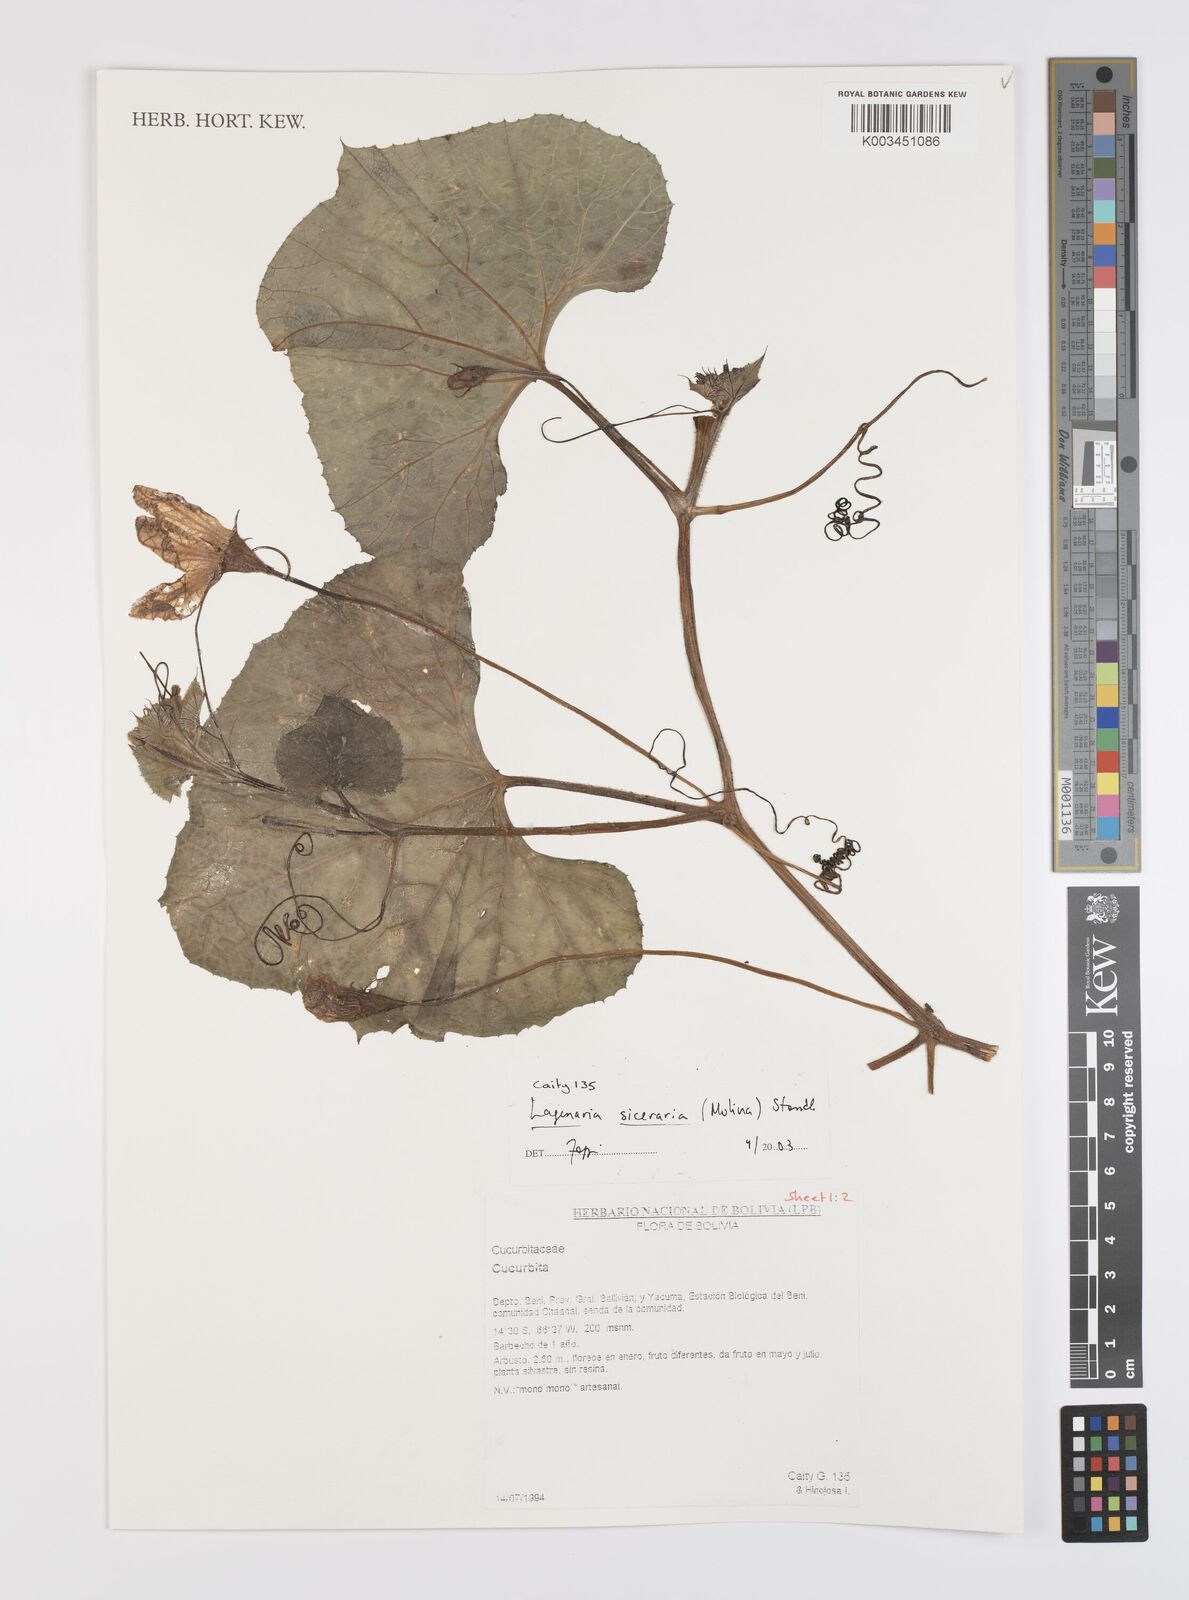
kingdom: Plantae
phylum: Tracheophyta
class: Magnoliopsida
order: Cucurbitales
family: Cucurbitaceae
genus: Lagenaria
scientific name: Lagenaria siceraria
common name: Bottle gourd
